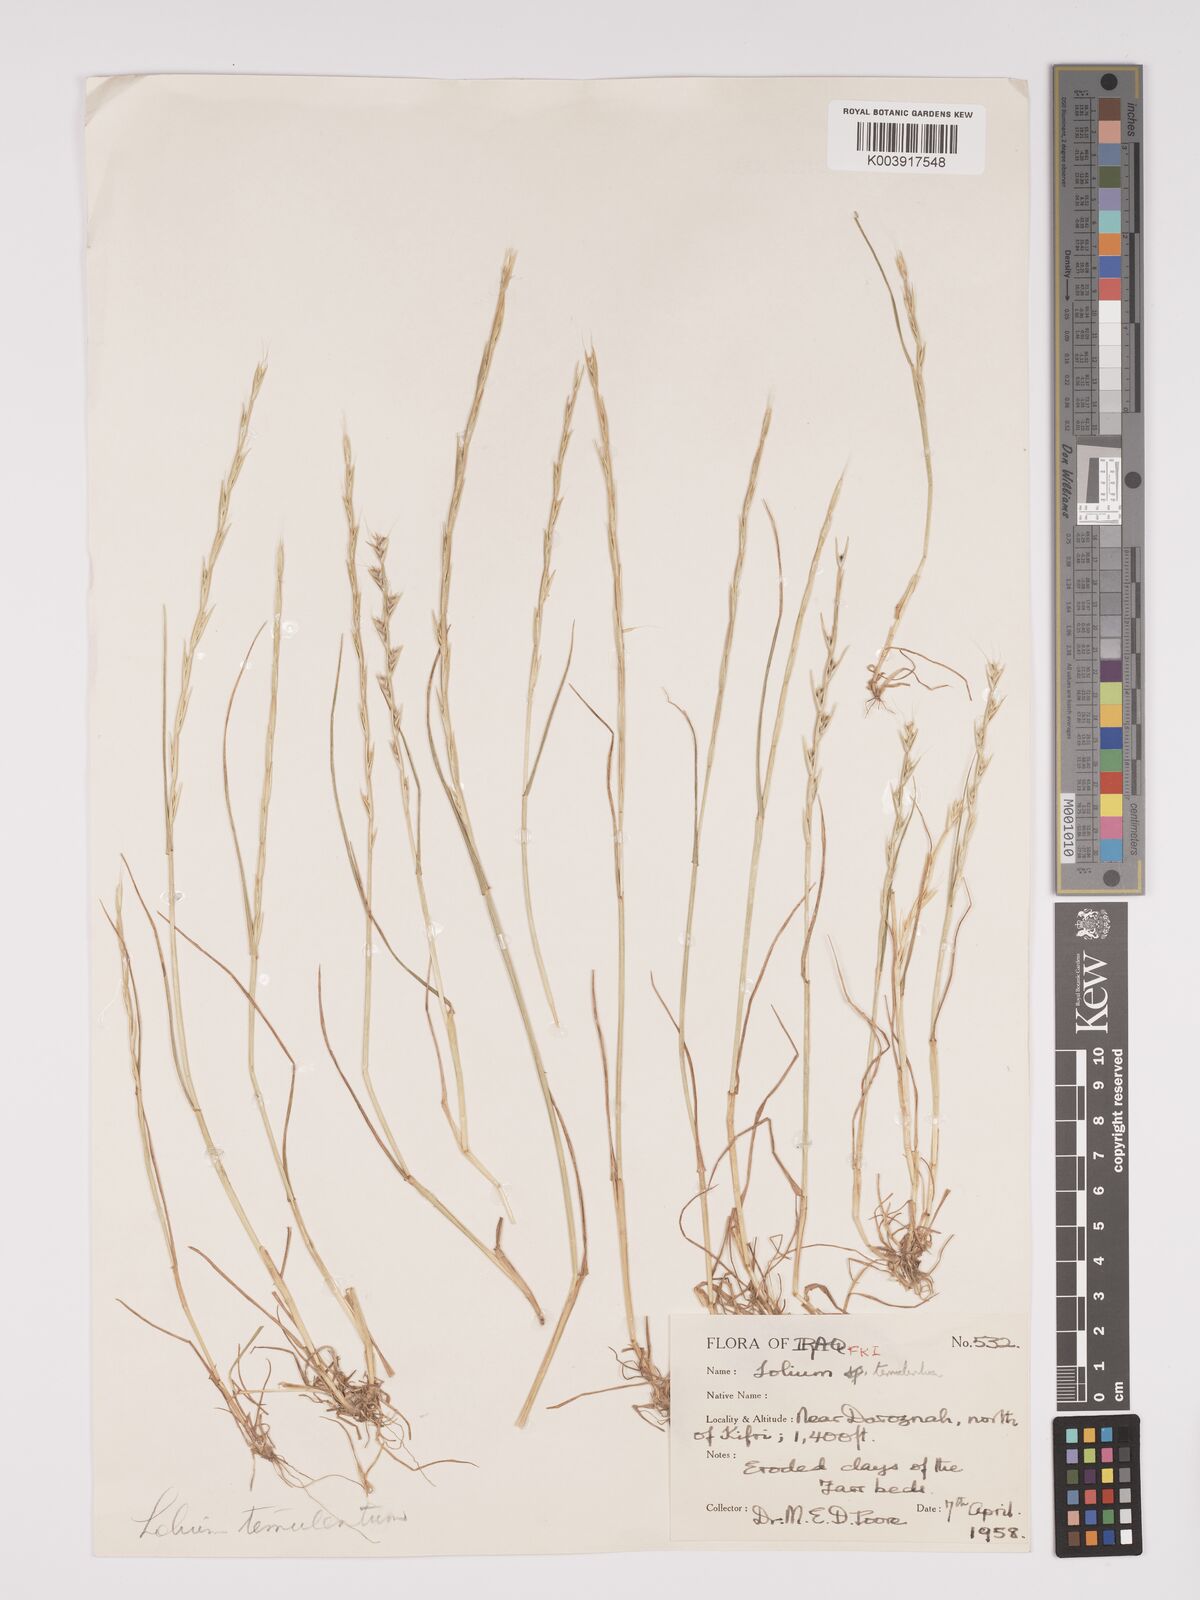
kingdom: Plantae
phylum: Tracheophyta
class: Liliopsida
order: Poales
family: Poaceae
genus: Lolium
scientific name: Lolium temulentum
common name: Darnel
